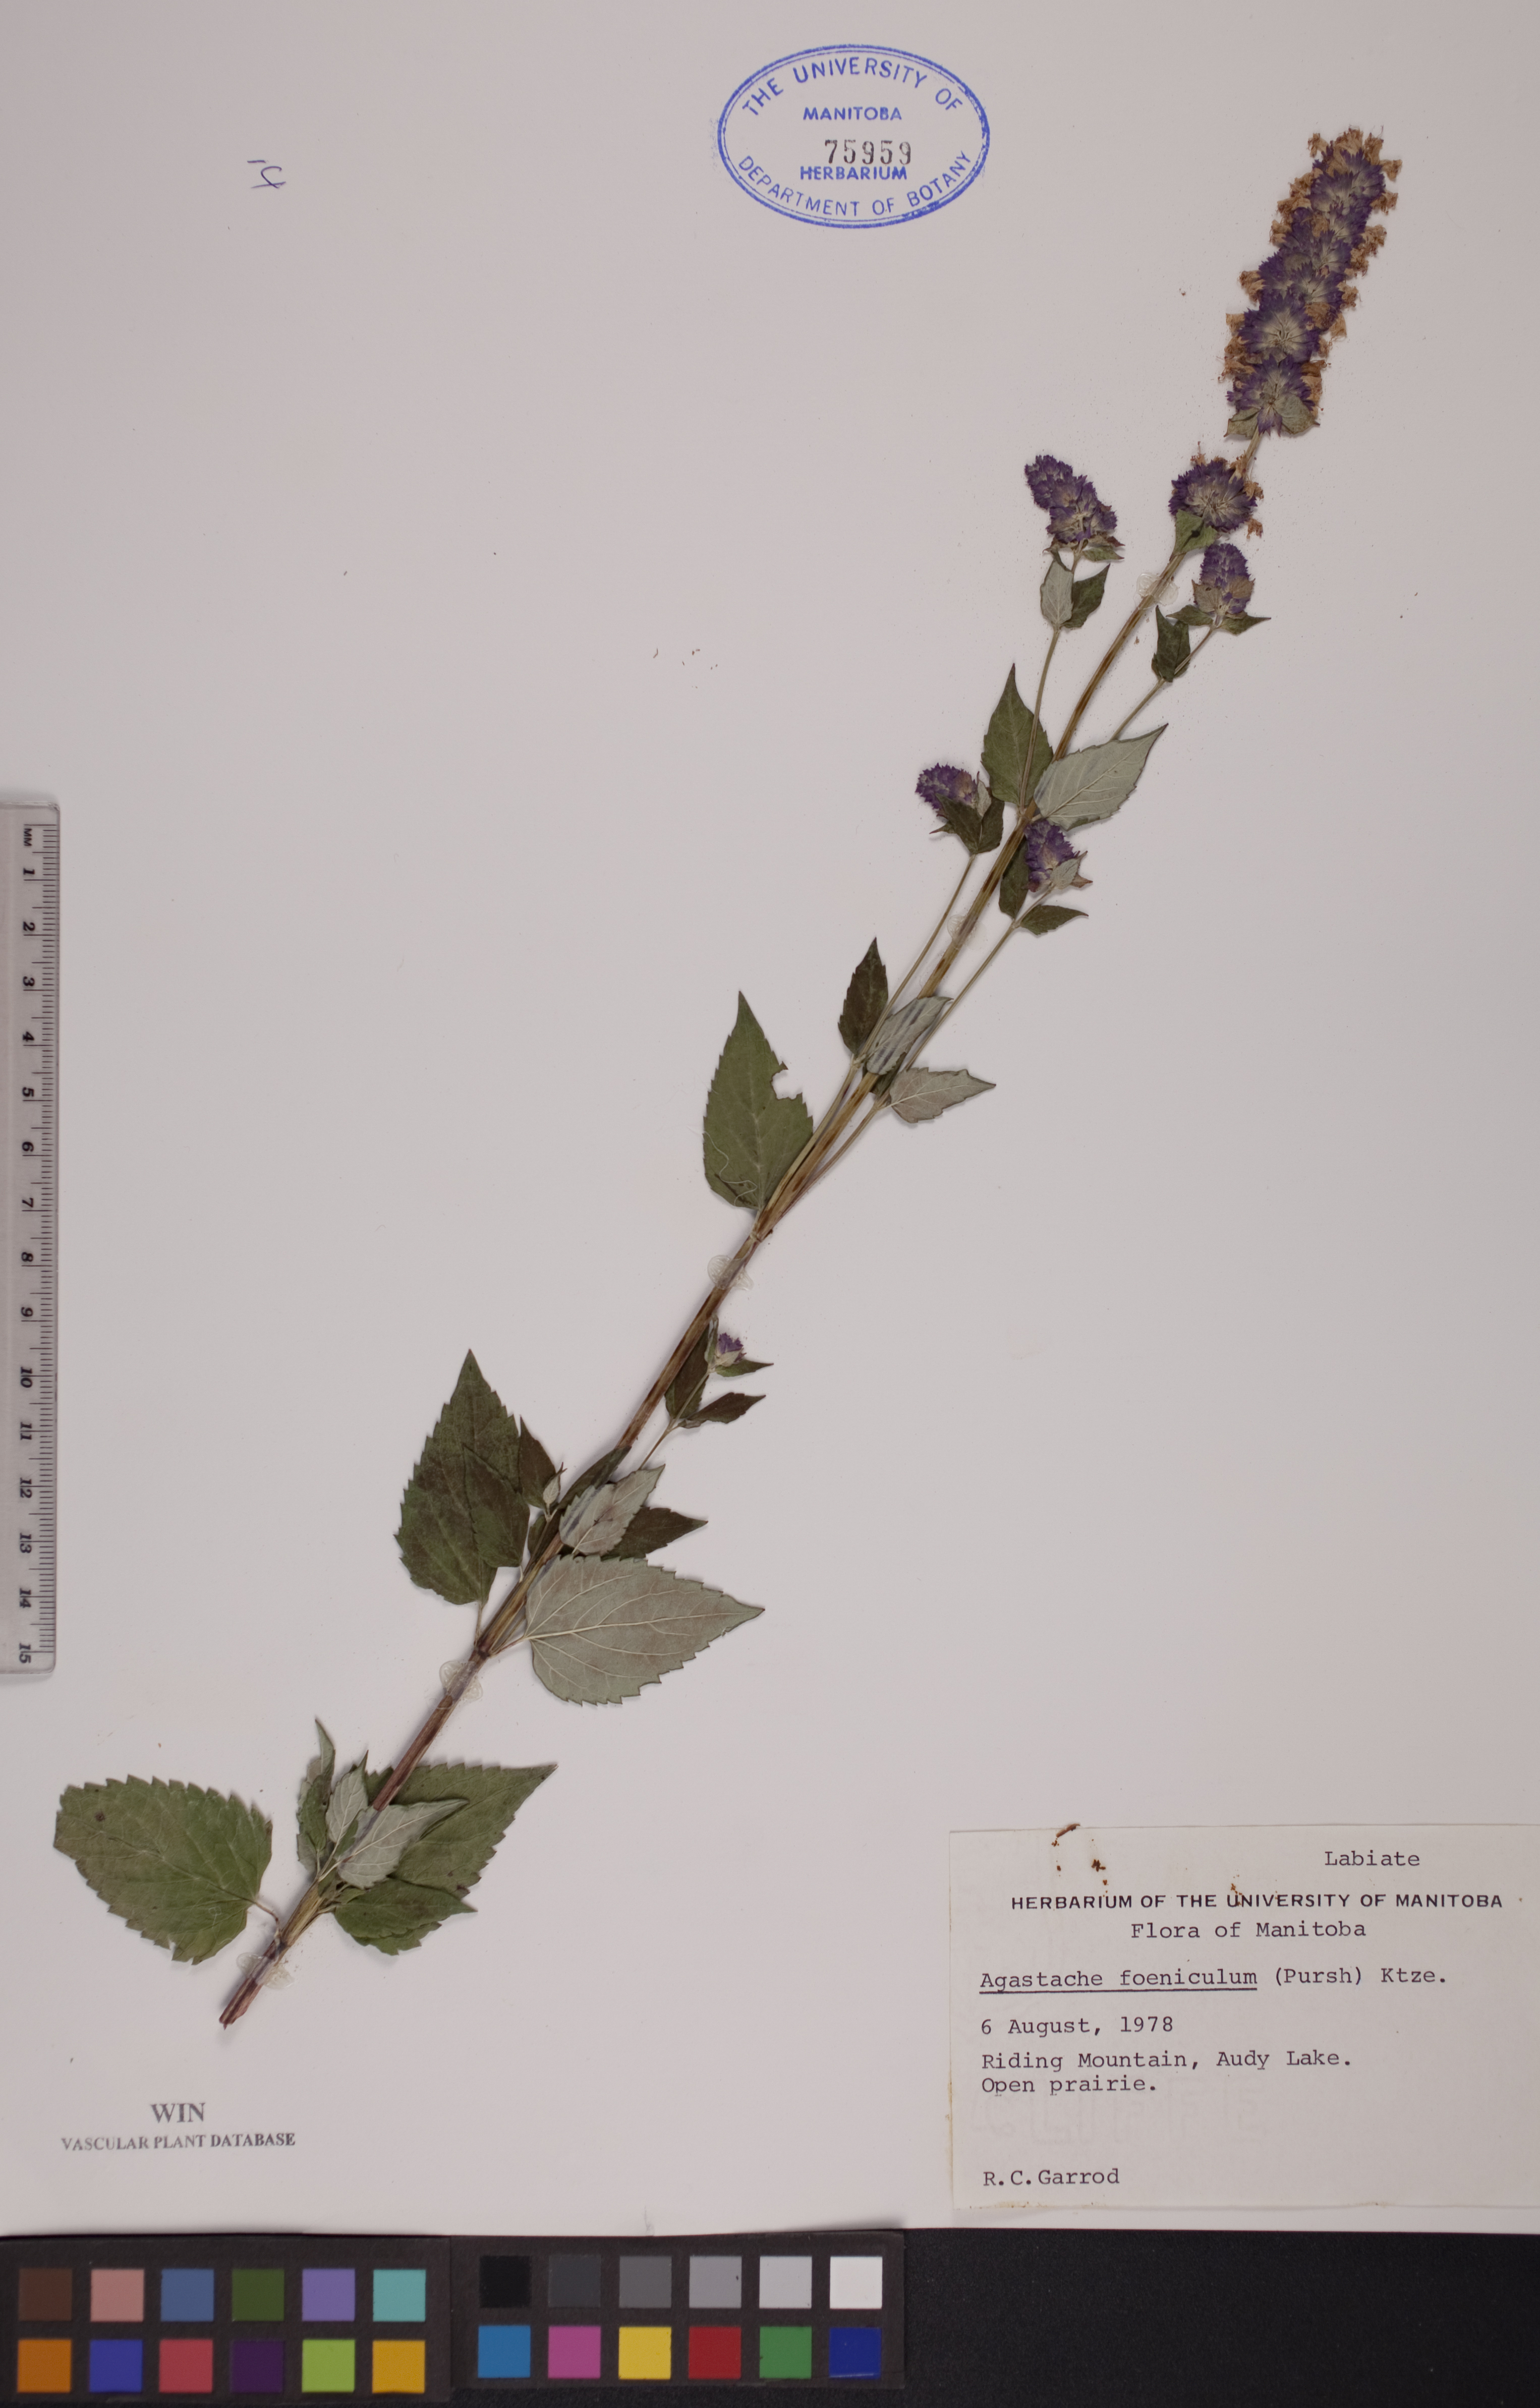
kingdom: Plantae
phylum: Tracheophyta
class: Magnoliopsida
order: Lamiales
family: Lamiaceae
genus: Agastache
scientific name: Agastache foeniculum
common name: Anise hyssop
